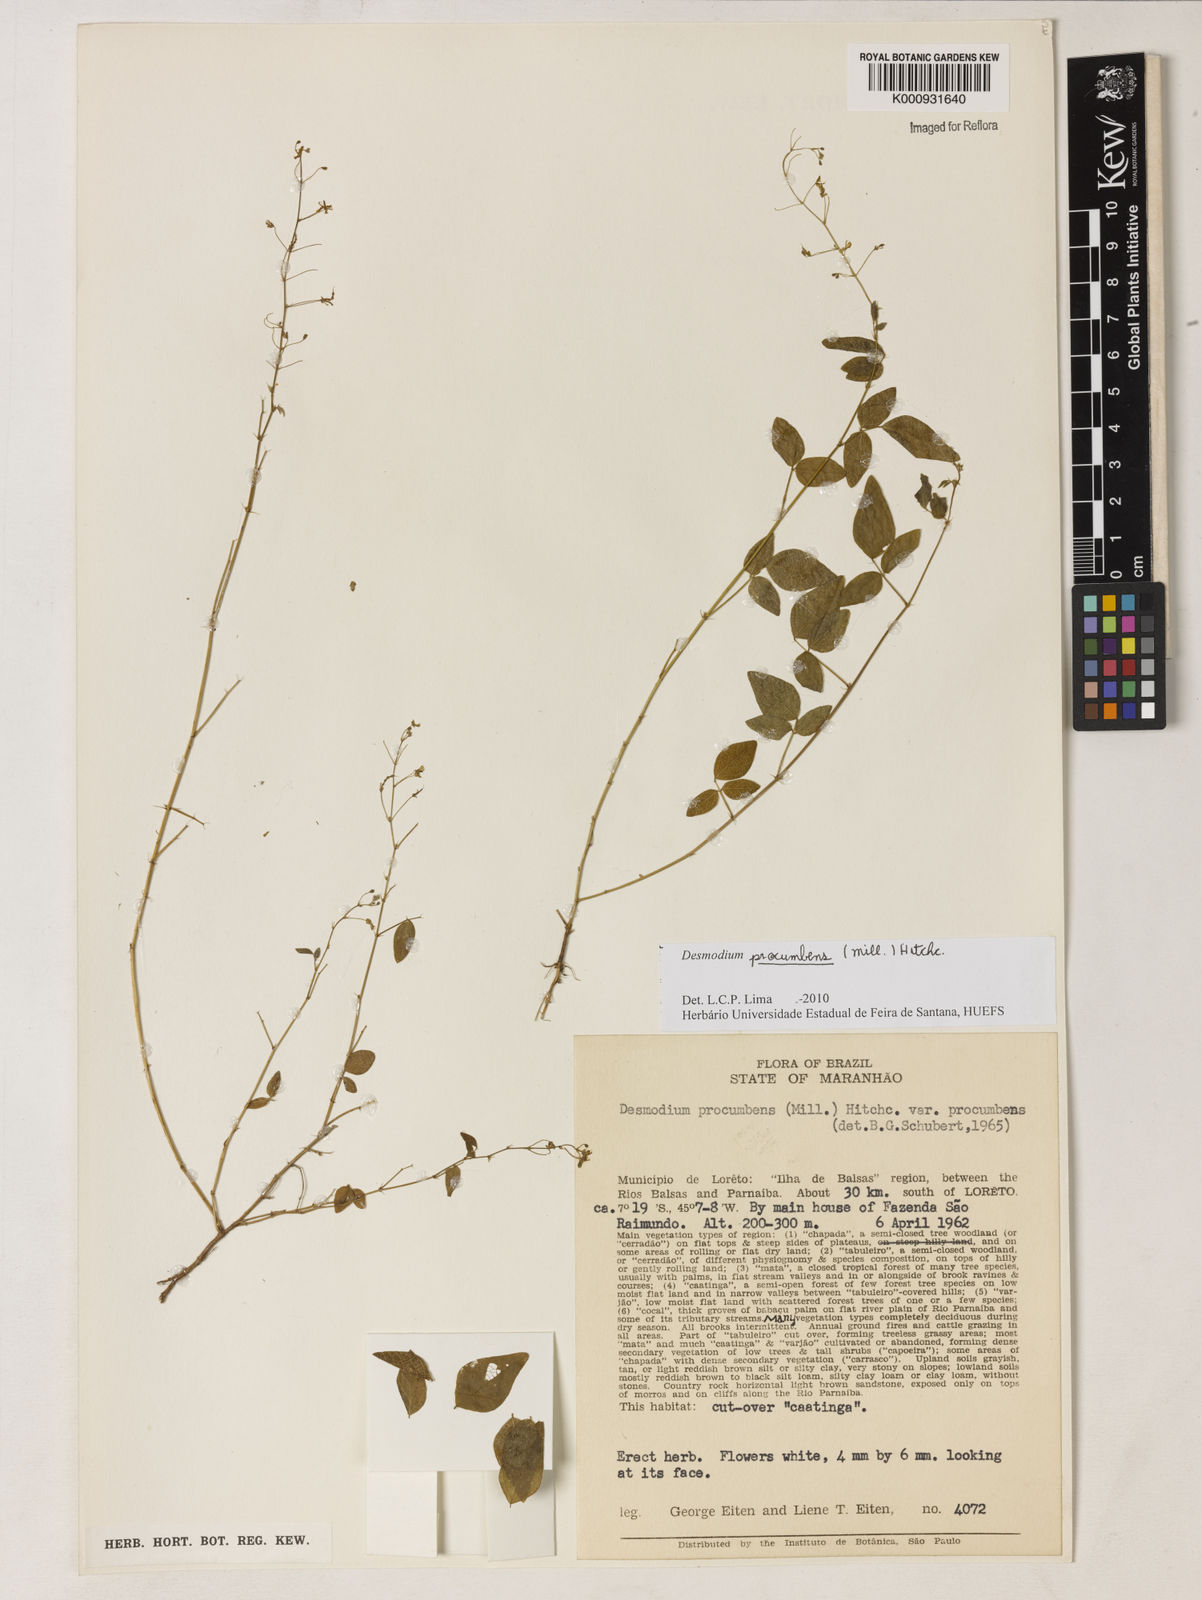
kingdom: Plantae
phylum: Tracheophyta
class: Magnoliopsida
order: Fabales
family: Fabaceae
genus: Desmodium
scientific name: Desmodium procumbens
